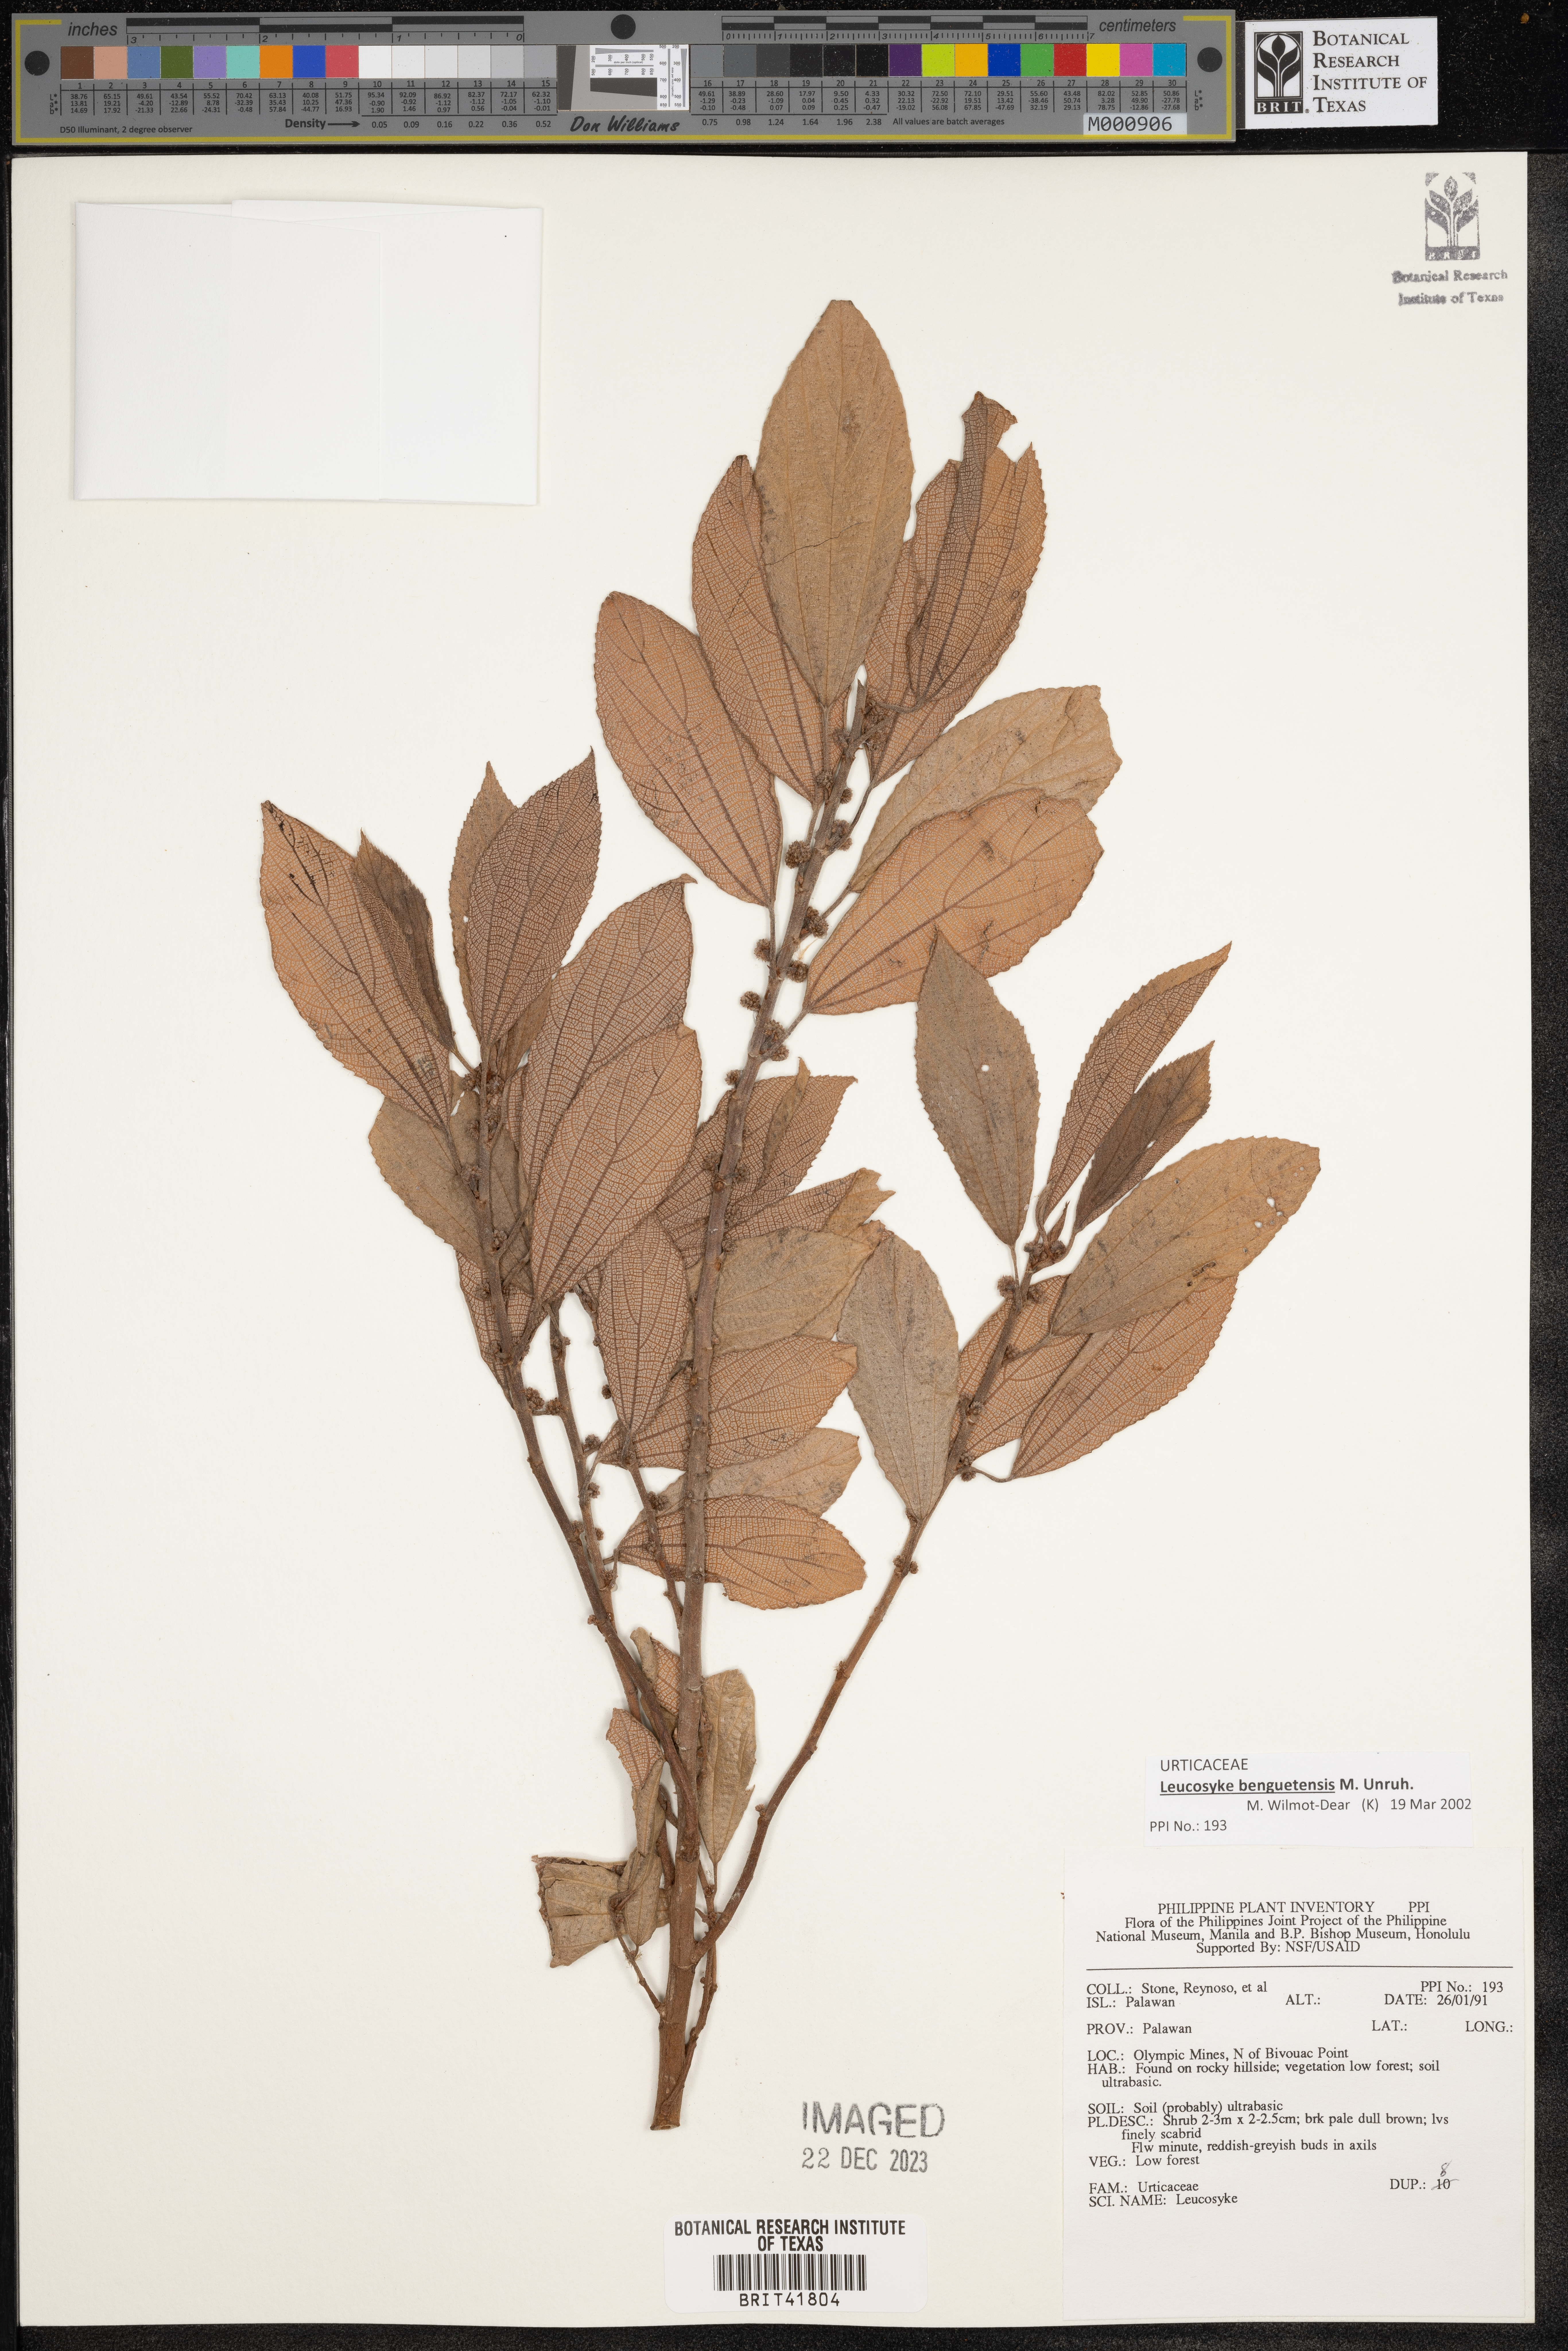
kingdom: Plantae
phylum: Tracheophyta
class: Magnoliopsida
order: Rosales
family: Urticaceae
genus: Leucosyke
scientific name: Leucosyke
